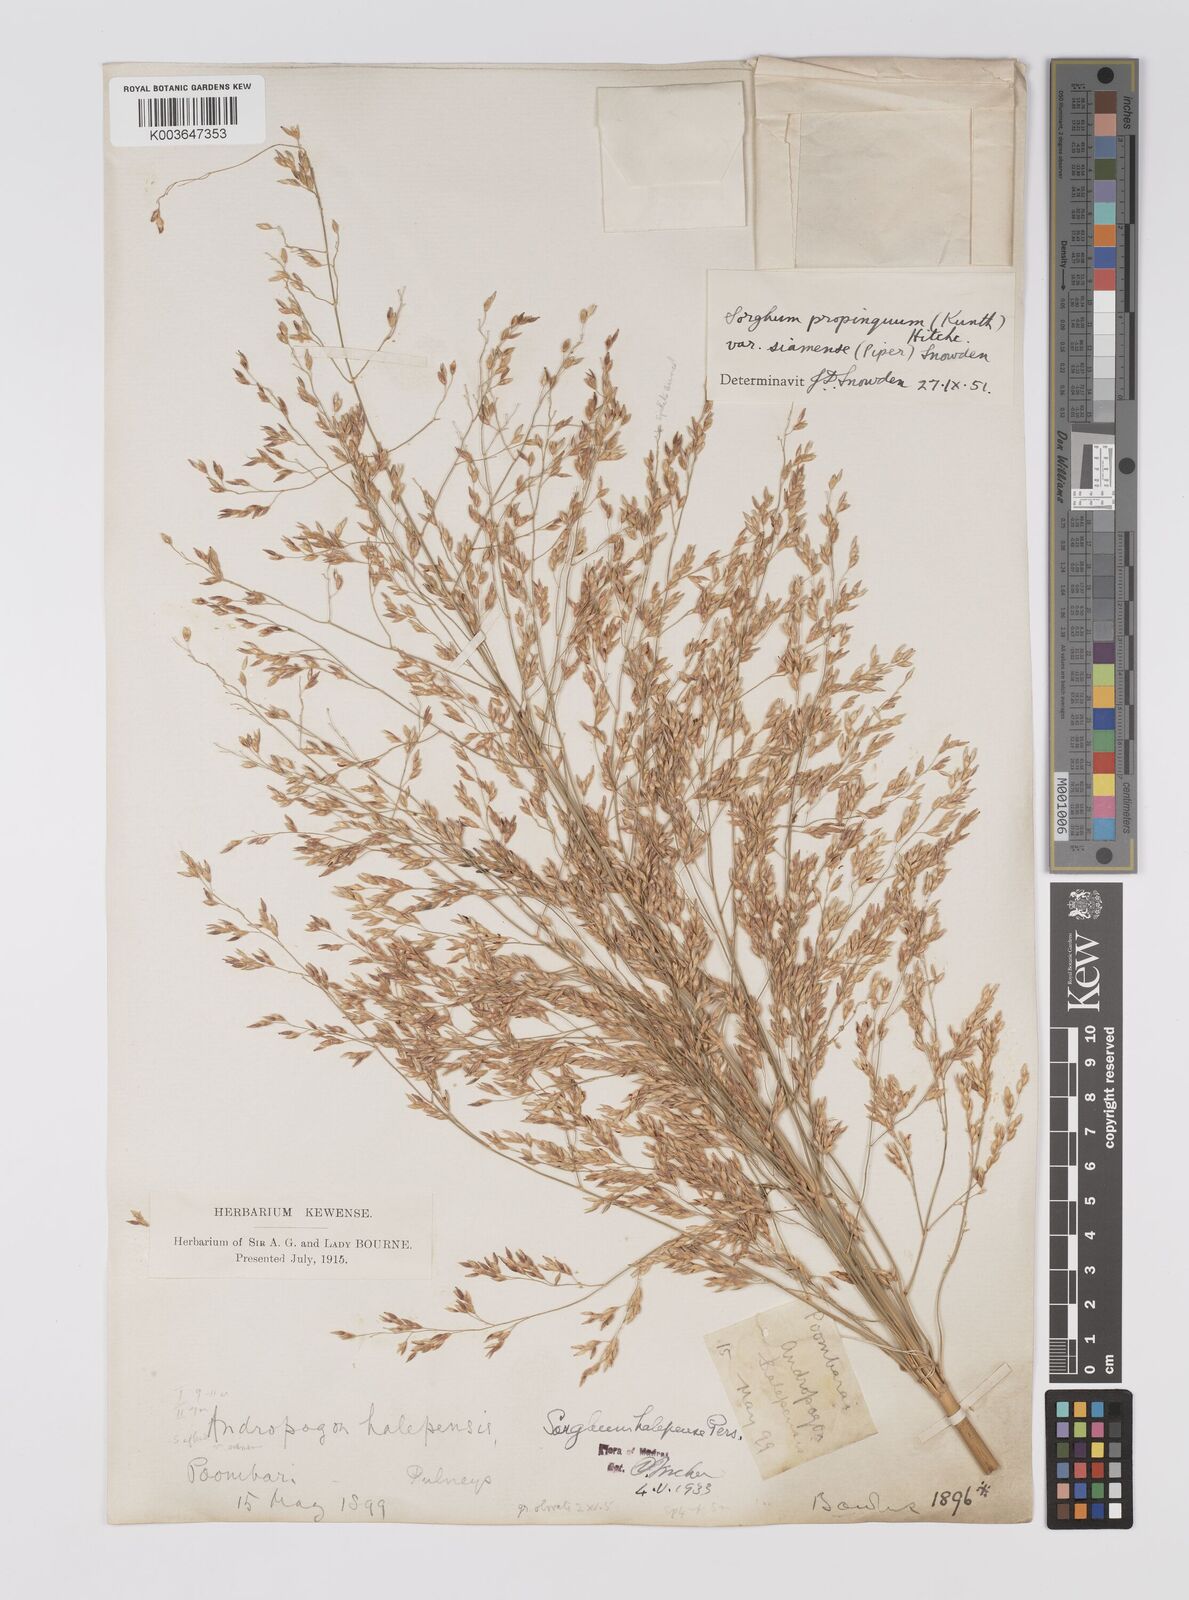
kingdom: Plantae
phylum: Tracheophyta
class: Liliopsida
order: Poales
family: Poaceae
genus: Sorghum
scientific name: Sorghum propinquum
